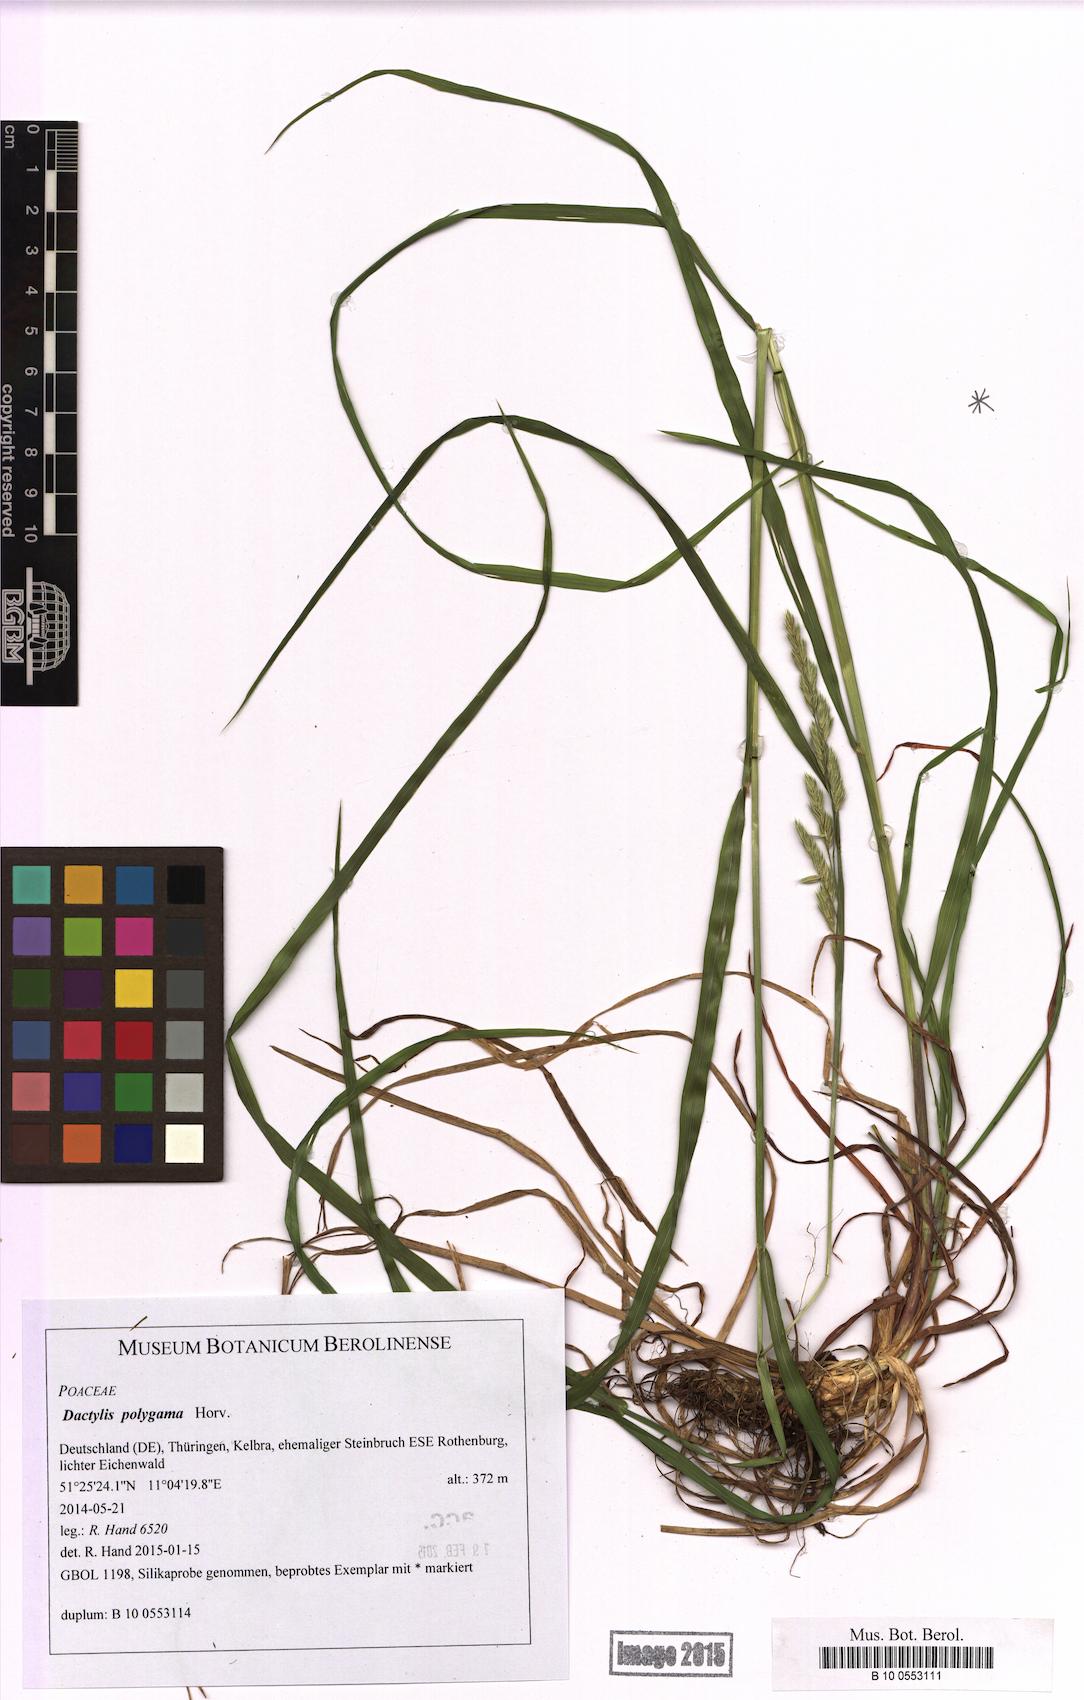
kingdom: Plantae
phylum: Tracheophyta
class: Liliopsida
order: Poales
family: Poaceae
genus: Dactylis
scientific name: Dactylis glomerata
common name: Orchardgrass
